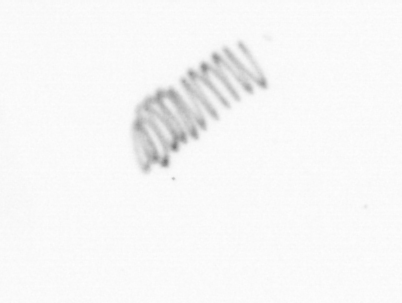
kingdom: Chromista
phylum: Ochrophyta
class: Bacillariophyceae
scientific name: Bacillariophyceae
